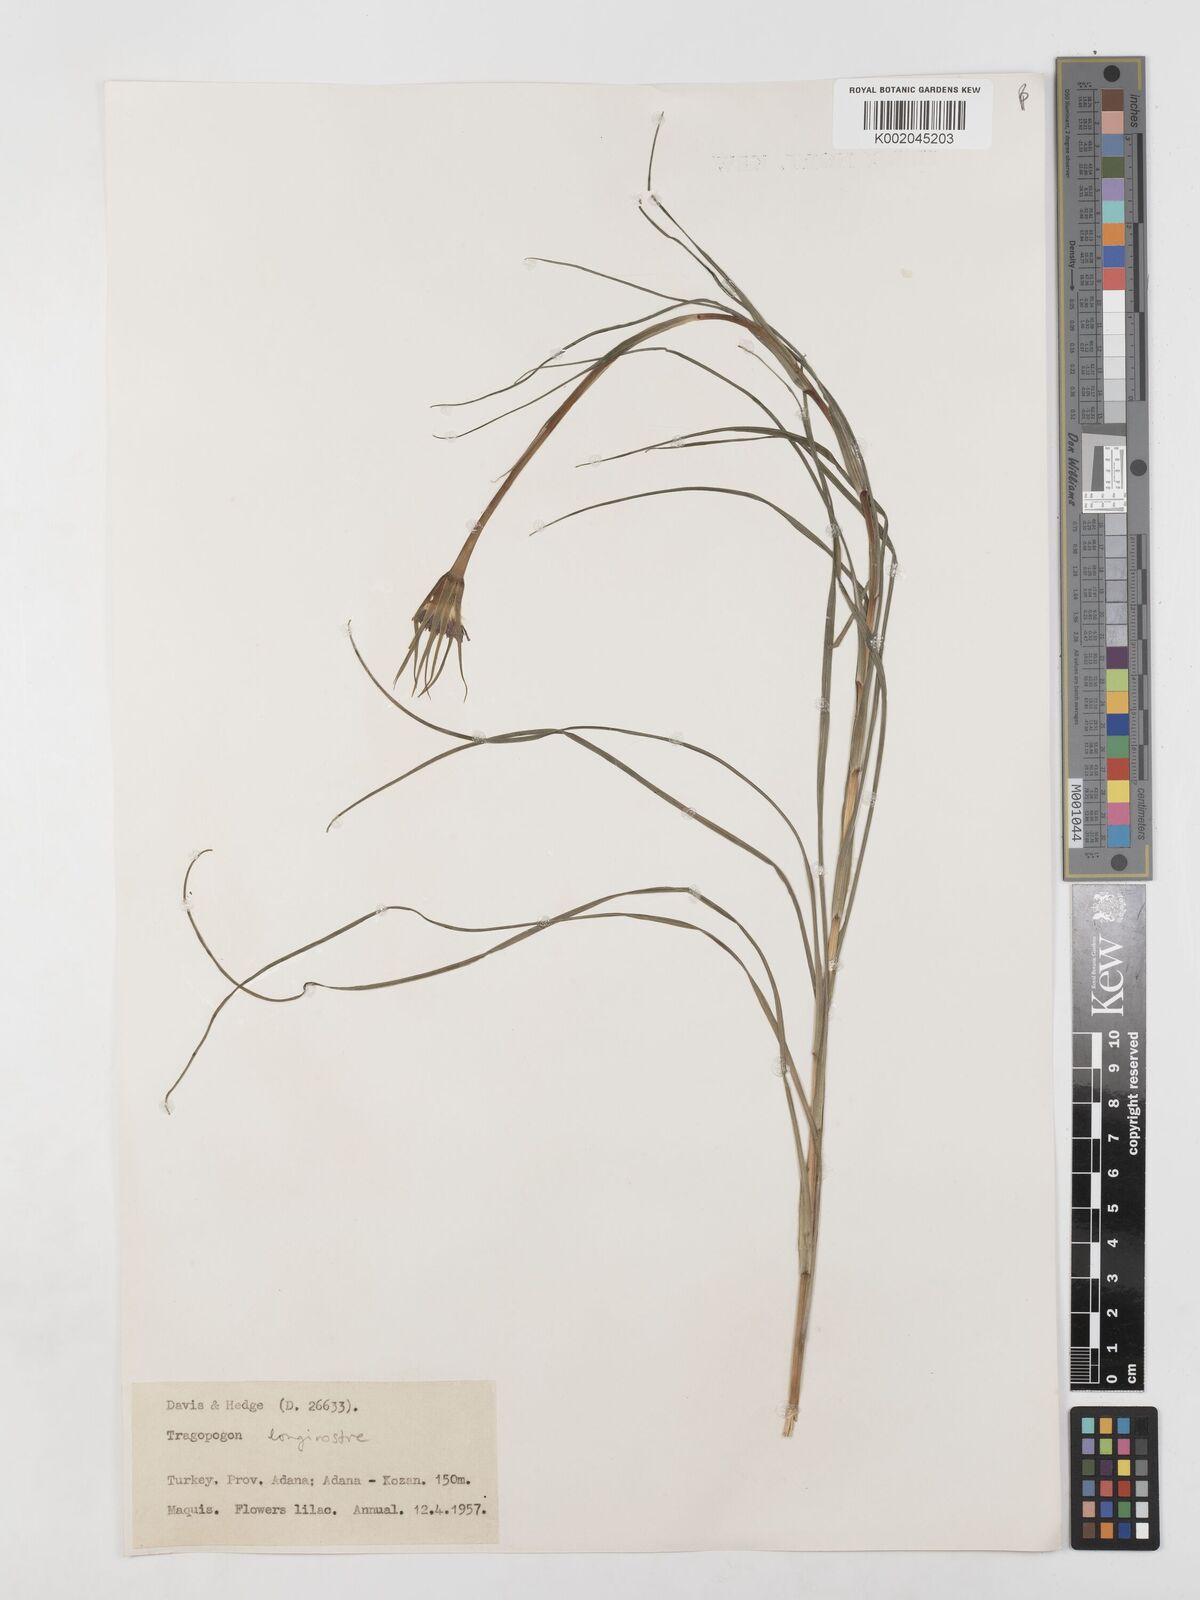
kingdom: Plantae
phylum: Tracheophyta
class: Magnoliopsida
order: Asterales
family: Asteraceae
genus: Tragopogon
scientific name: Tragopogon coelesyriacus
